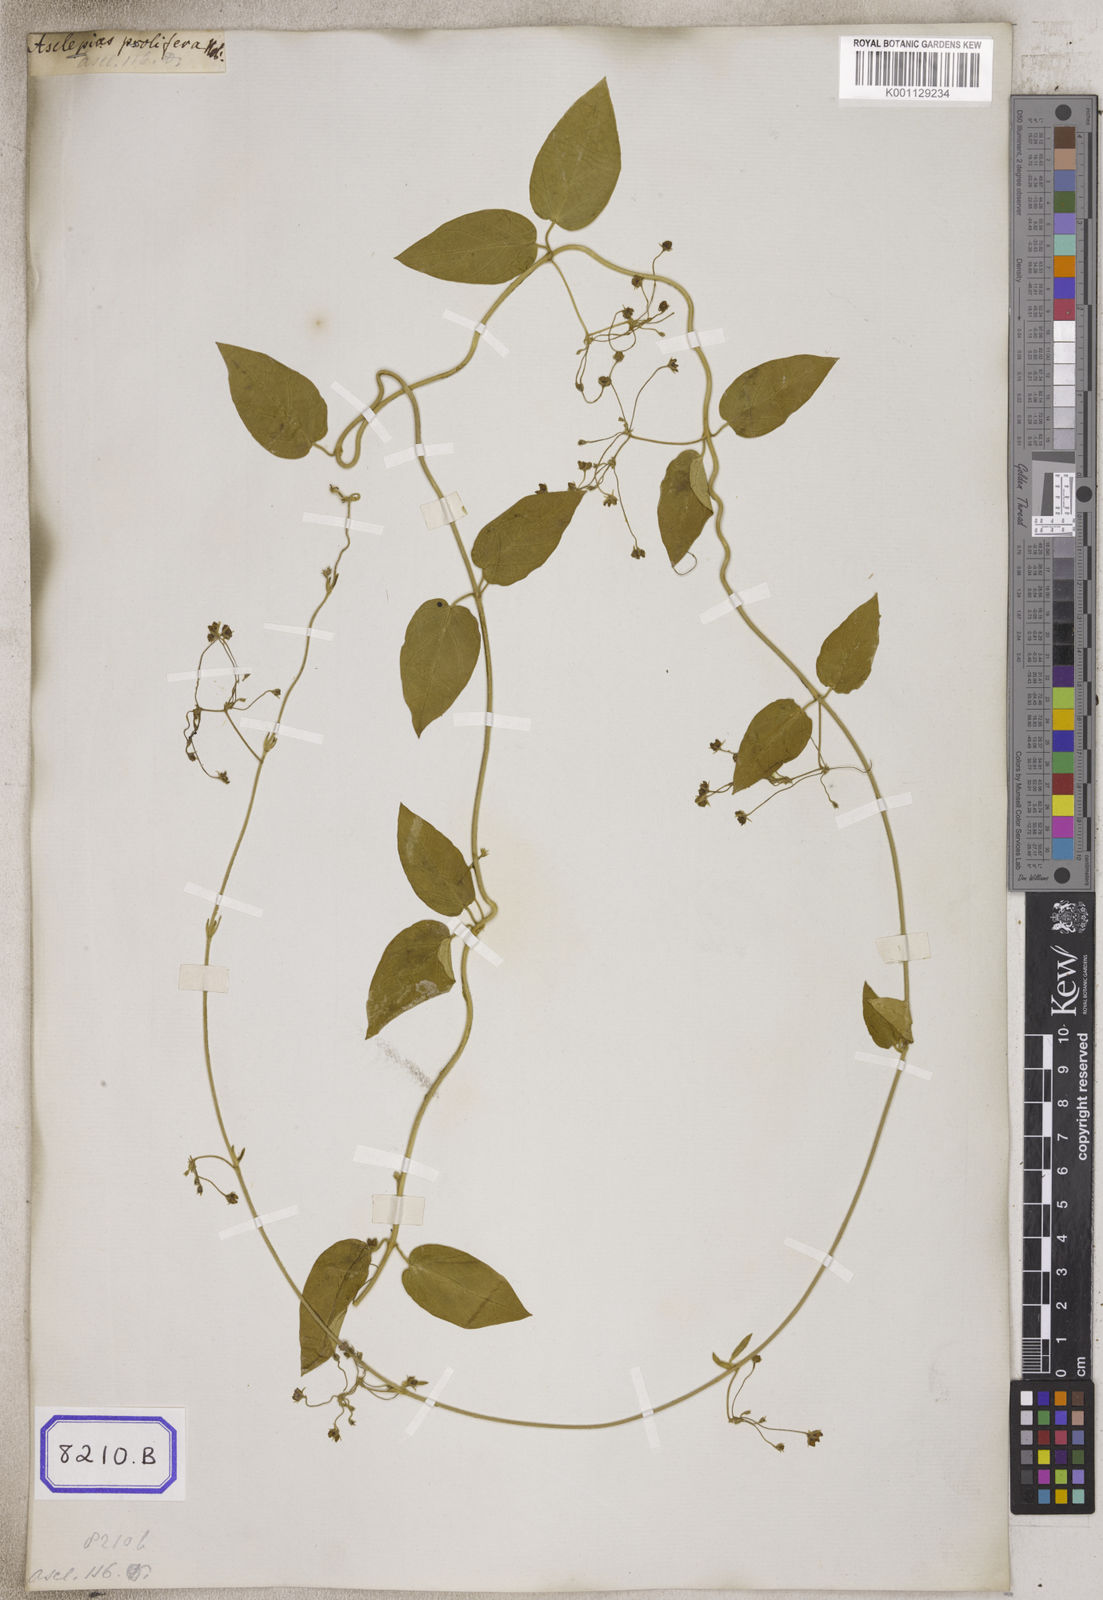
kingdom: Plantae
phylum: Tracheophyta
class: Magnoliopsida
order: Gentianales
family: Apocynaceae
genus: Vincetoxicum
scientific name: Vincetoxicum indicum
